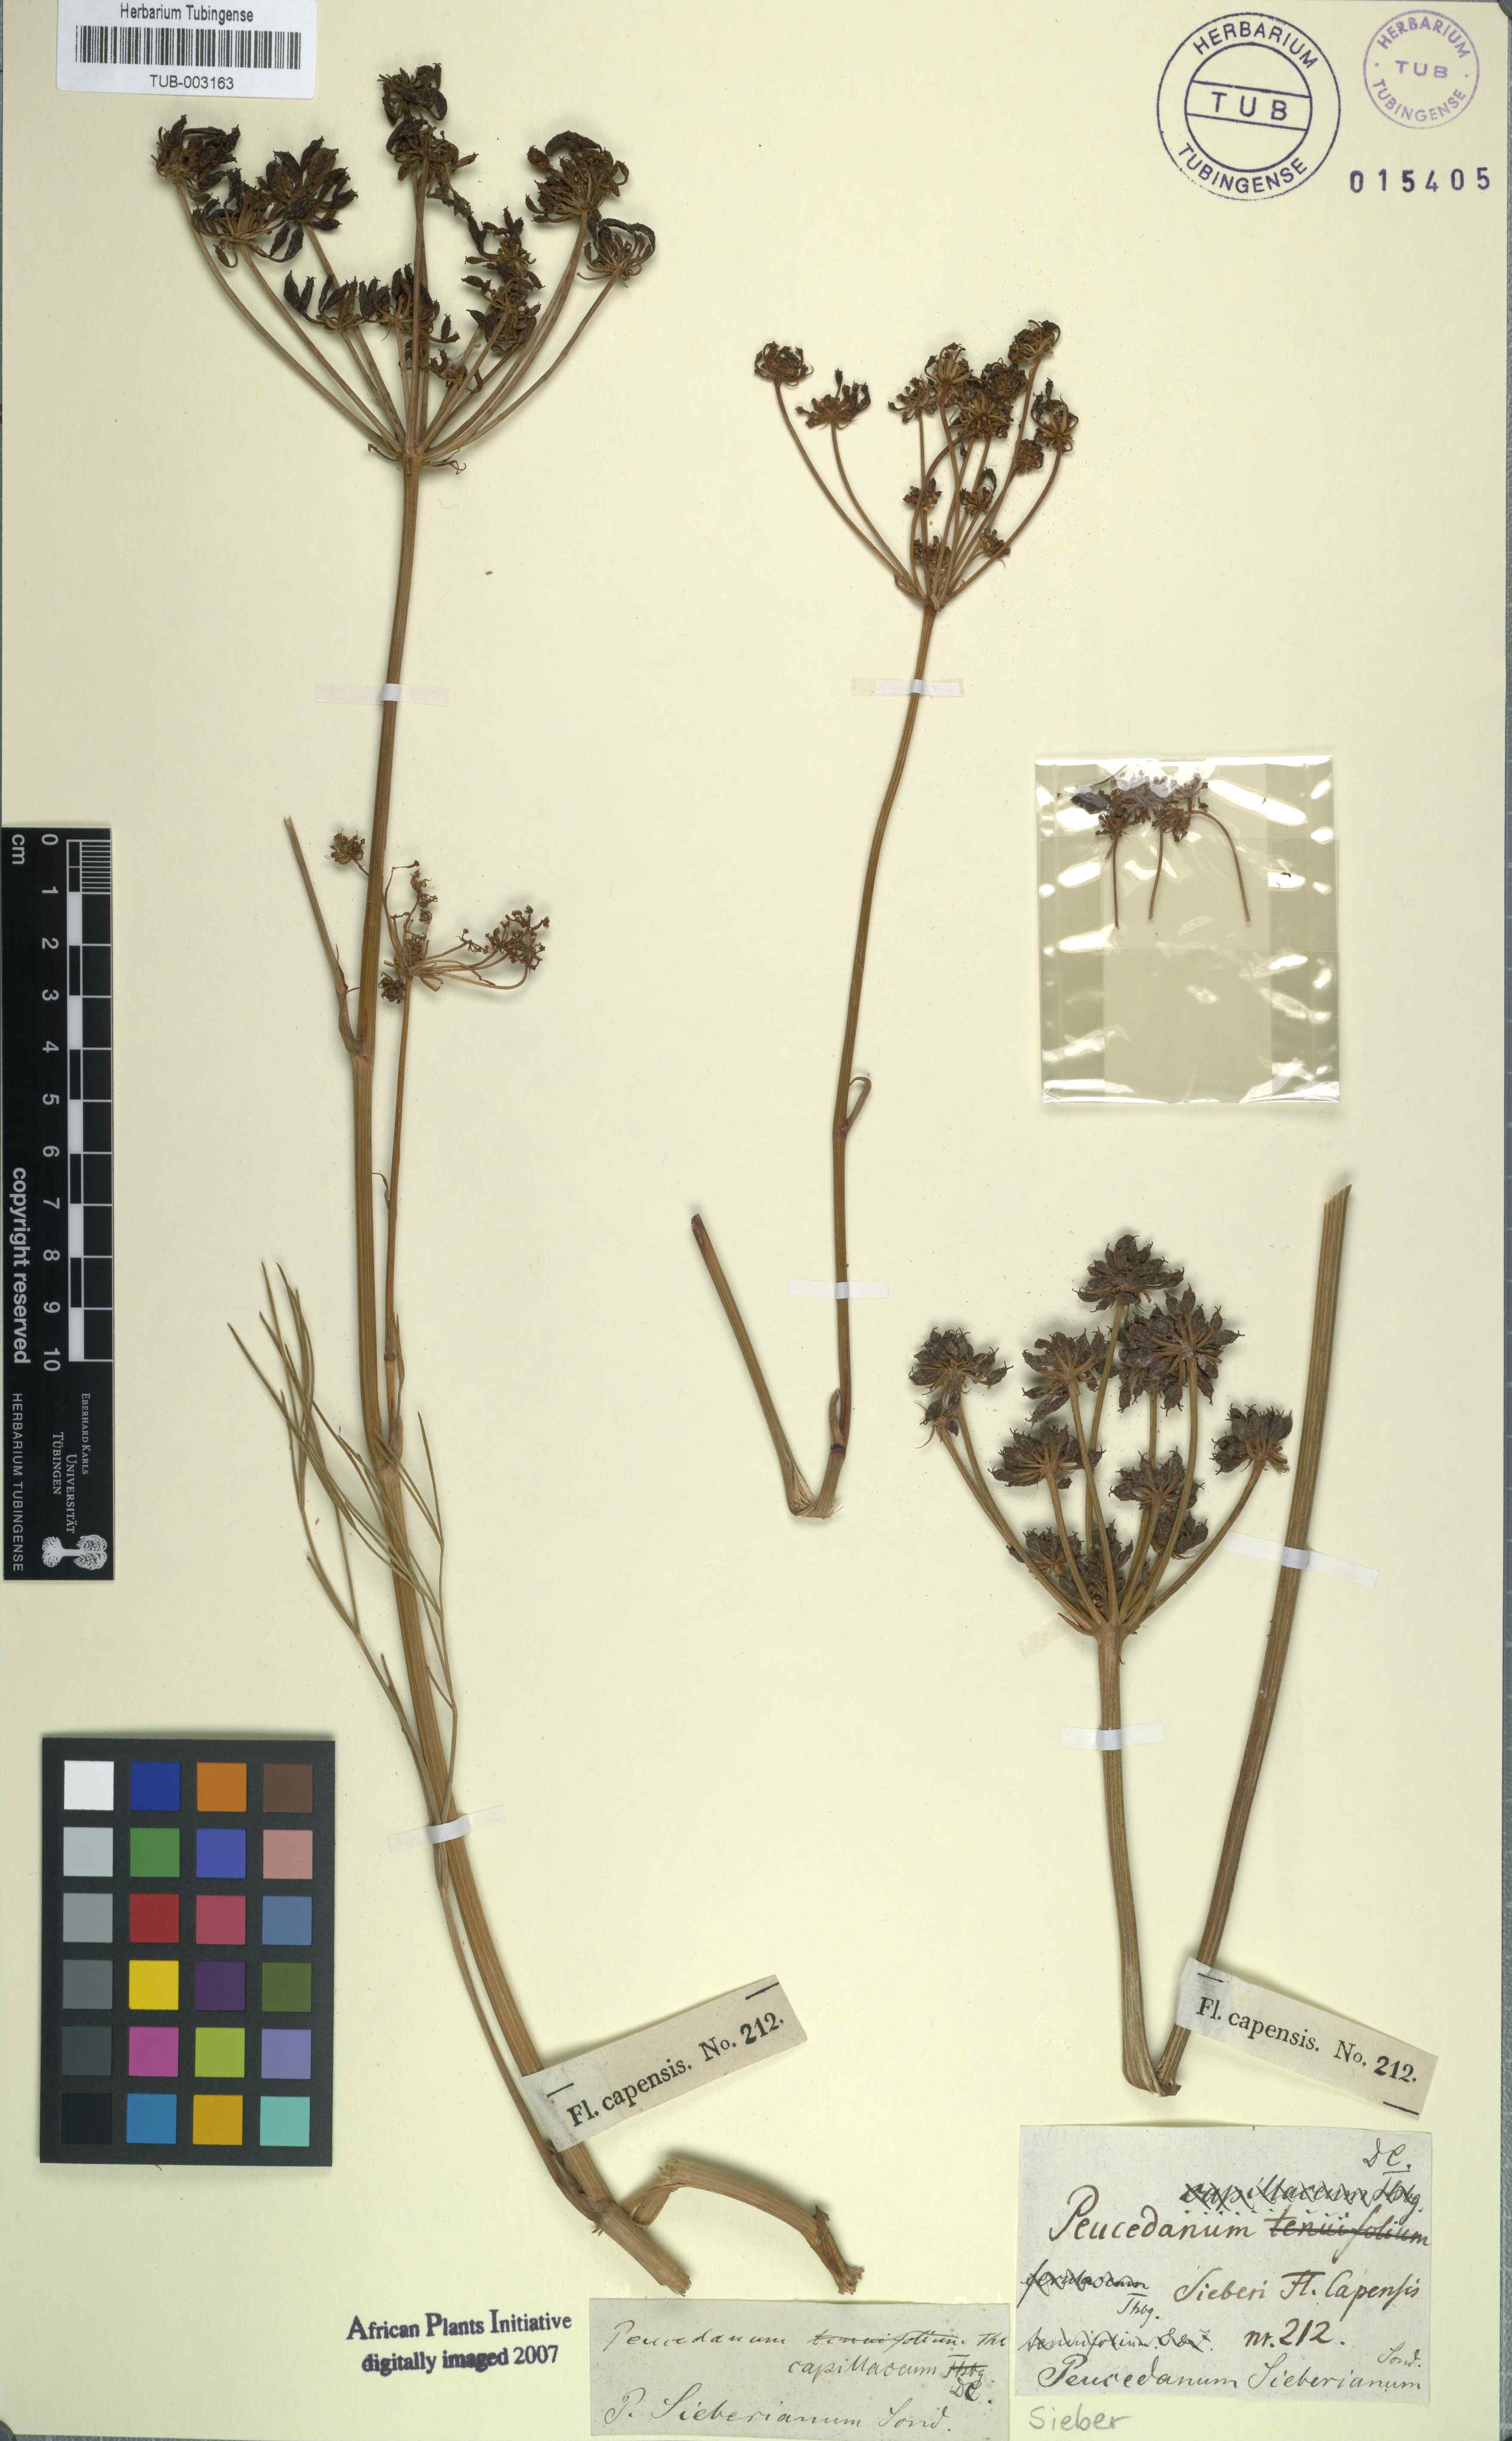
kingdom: Plantae
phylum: Tracheophyta
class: Magnoliopsida
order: Apiales
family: Apiaceae
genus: Nanobubon
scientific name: Nanobubon strictum
